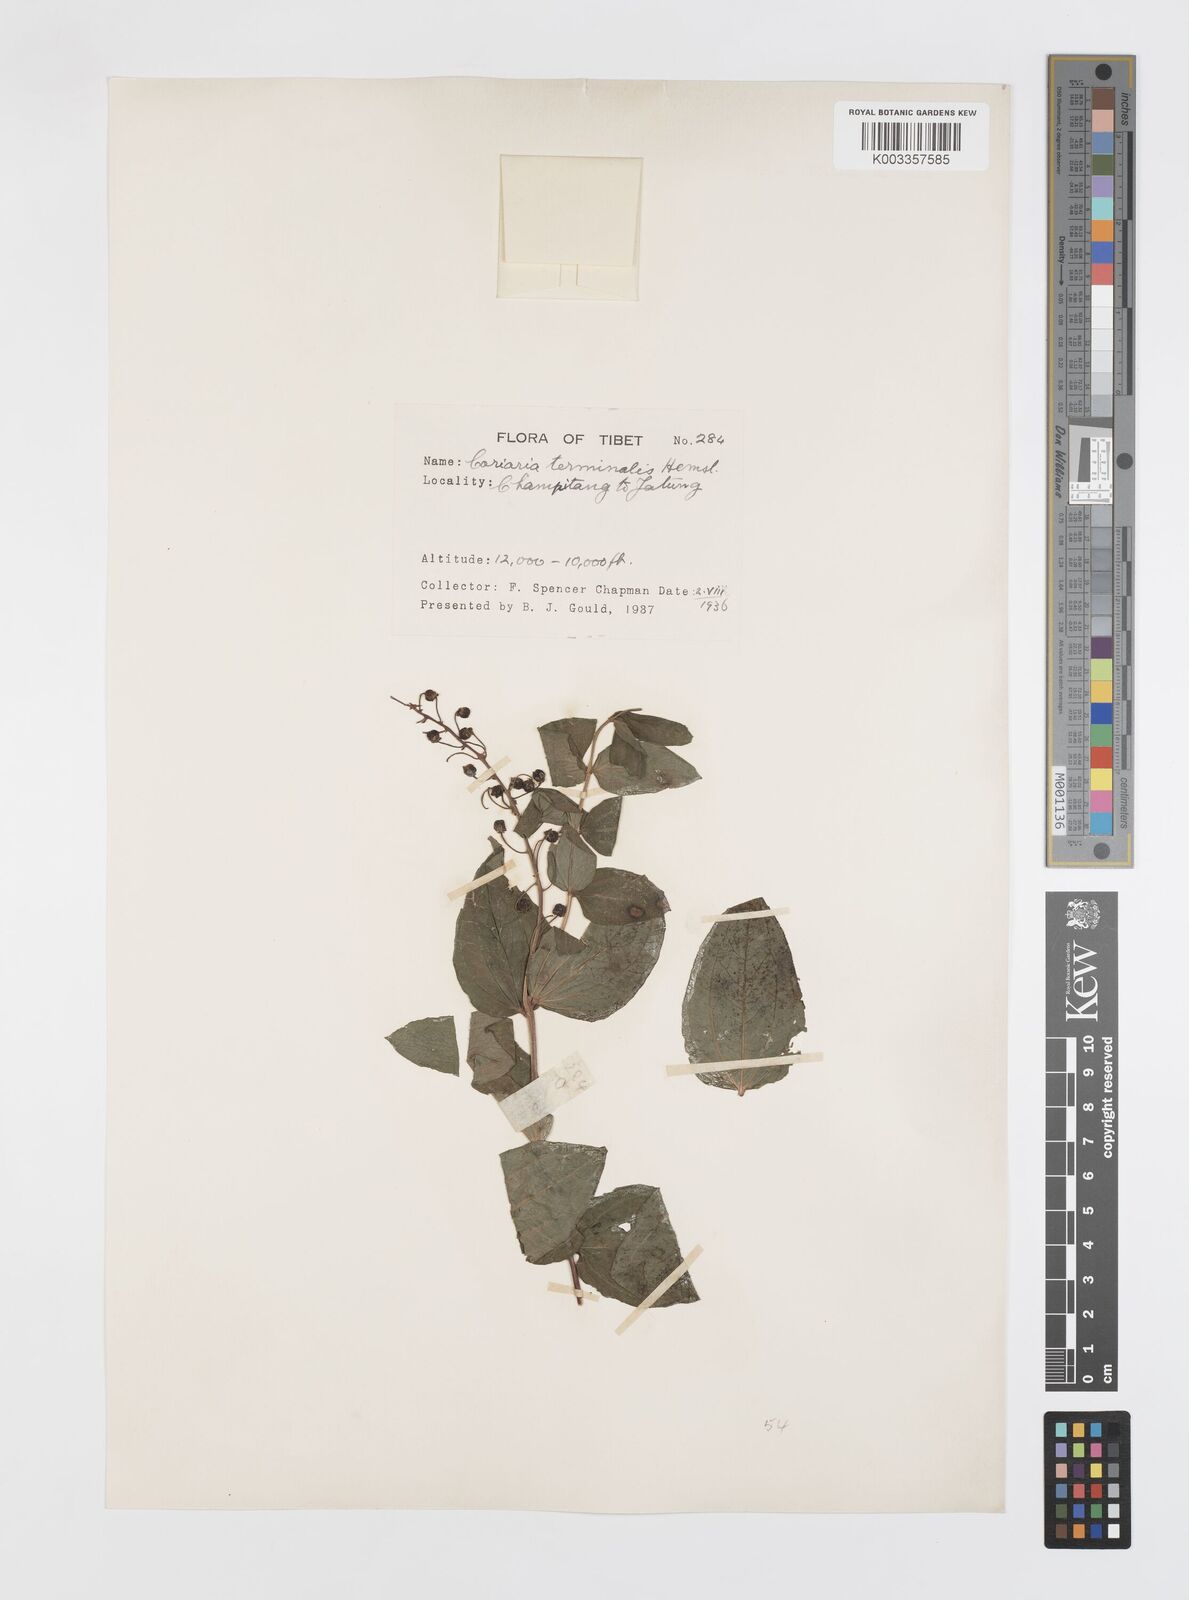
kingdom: Plantae
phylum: Tracheophyta
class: Magnoliopsida
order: Cucurbitales
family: Coriariaceae
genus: Coriaria
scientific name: Coriaria terminalis
